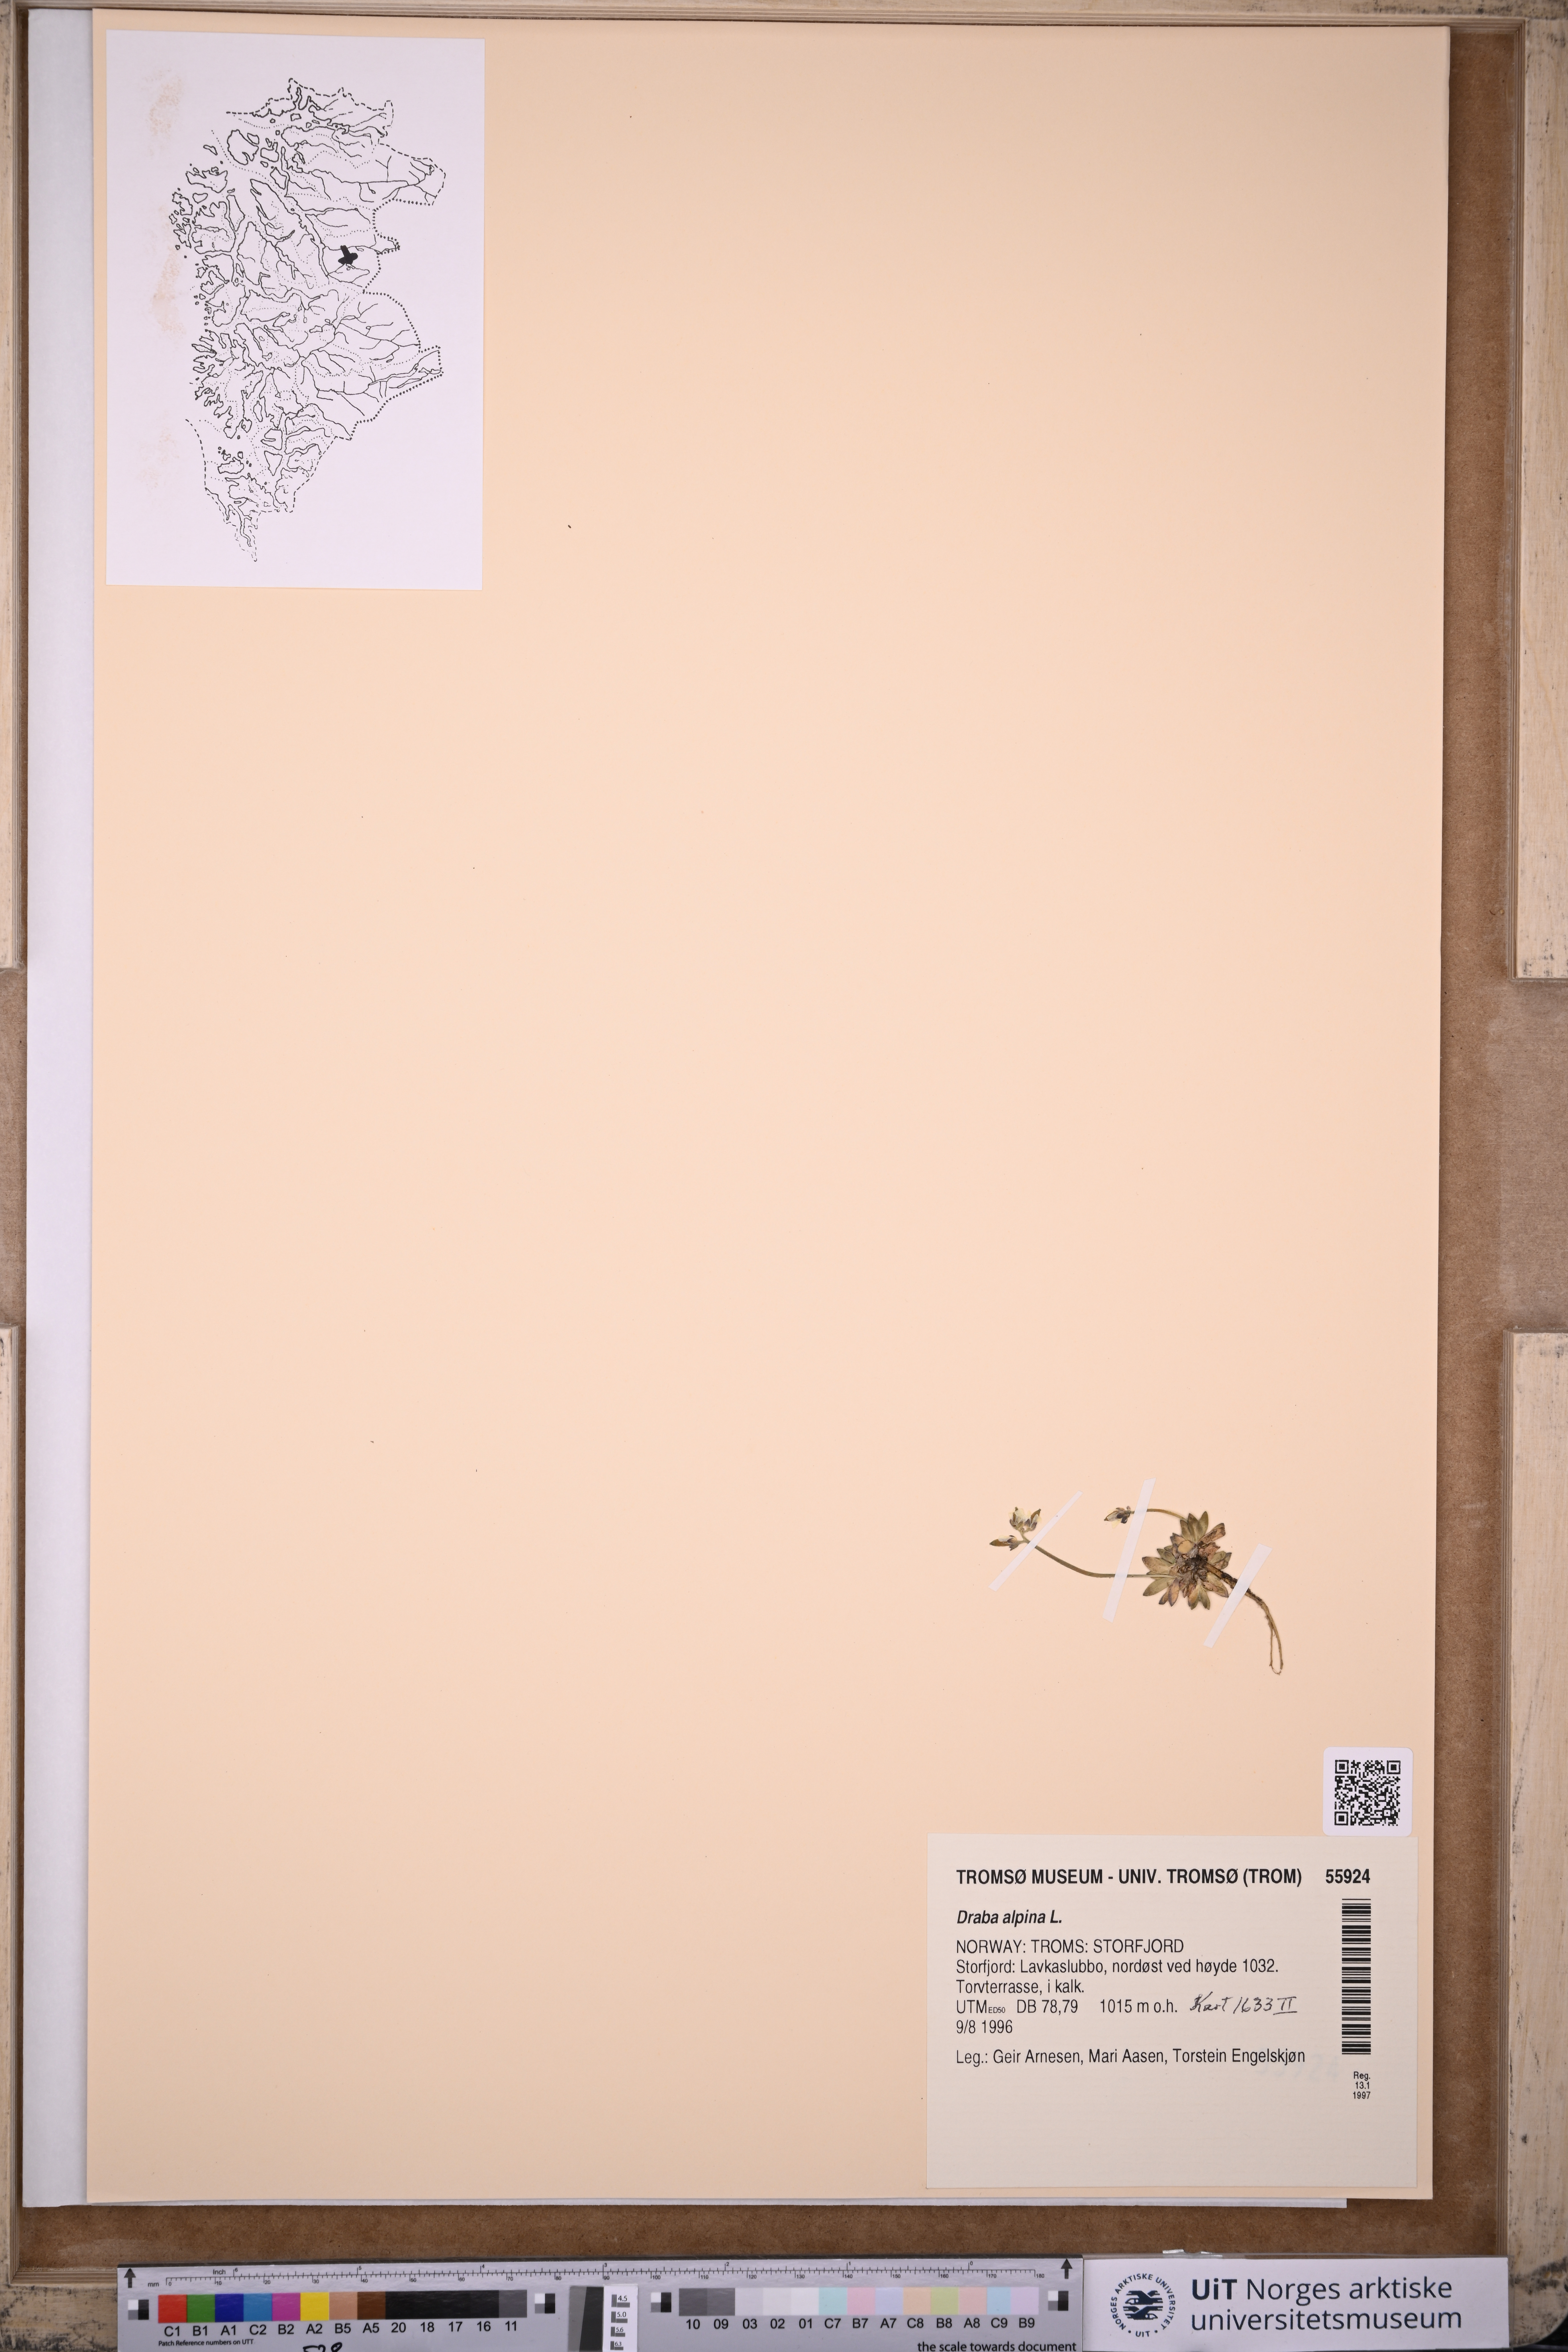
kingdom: Plantae
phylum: Tracheophyta
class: Magnoliopsida
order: Brassicales
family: Brassicaceae
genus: Draba
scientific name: Draba alpina
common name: Alpine draba
